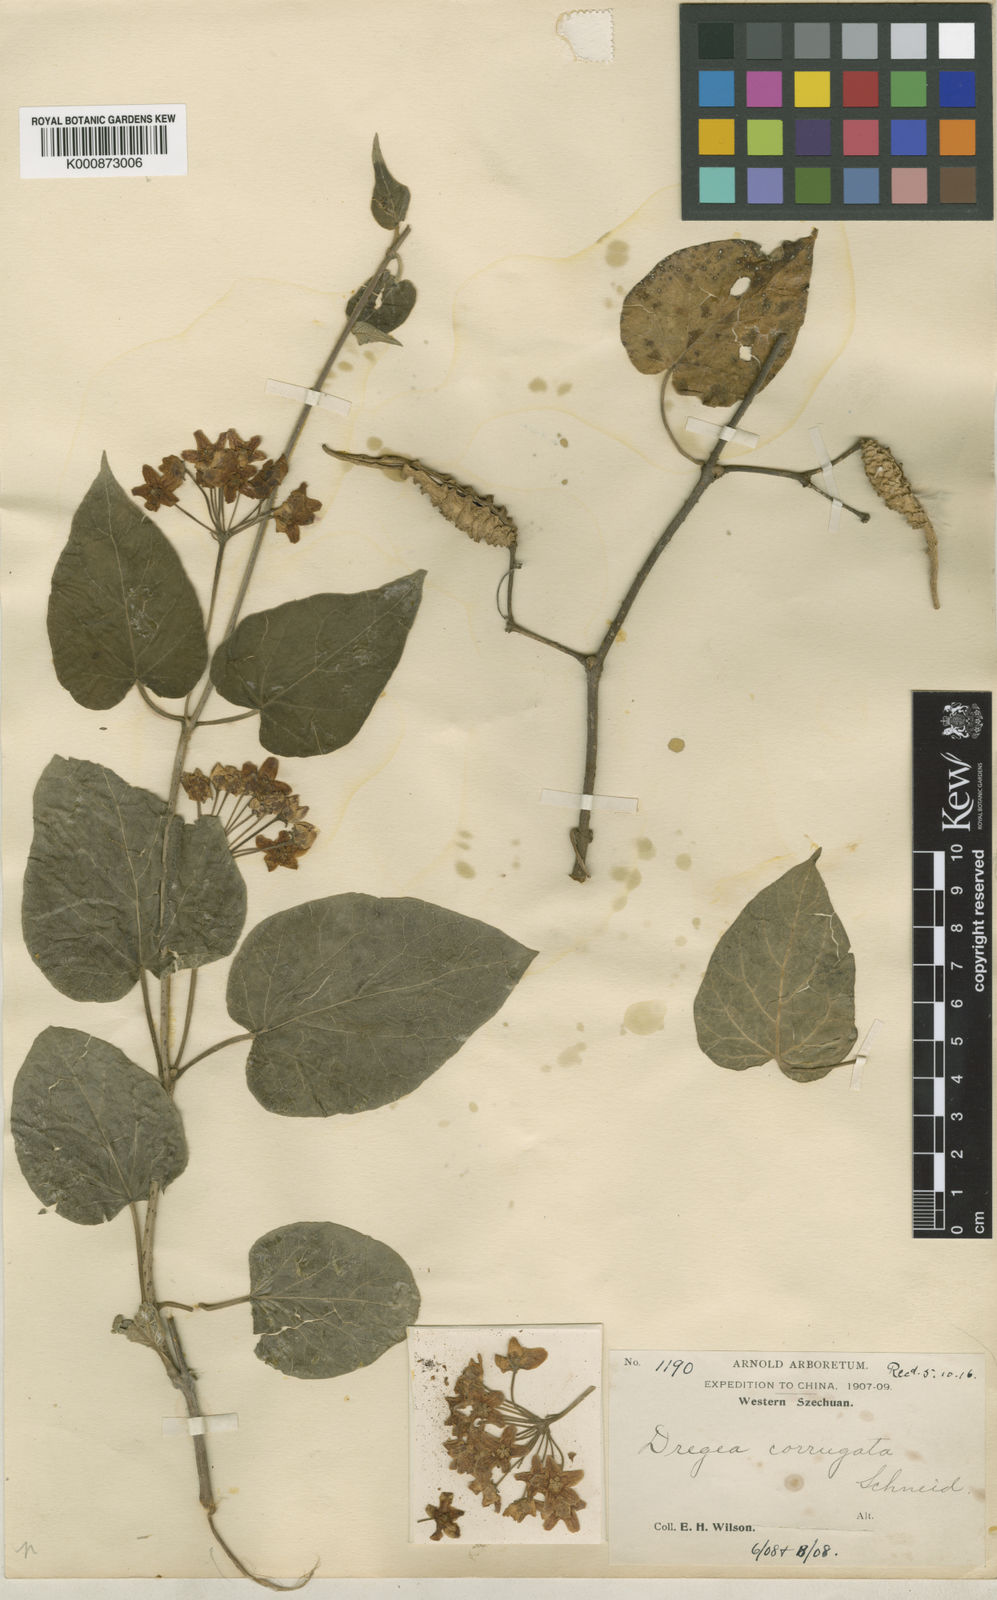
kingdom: Plantae
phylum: Tracheophyta
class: Magnoliopsida
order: Gentianales
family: Apocynaceae
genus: Stephanotis
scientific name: Stephanotis sinensis
